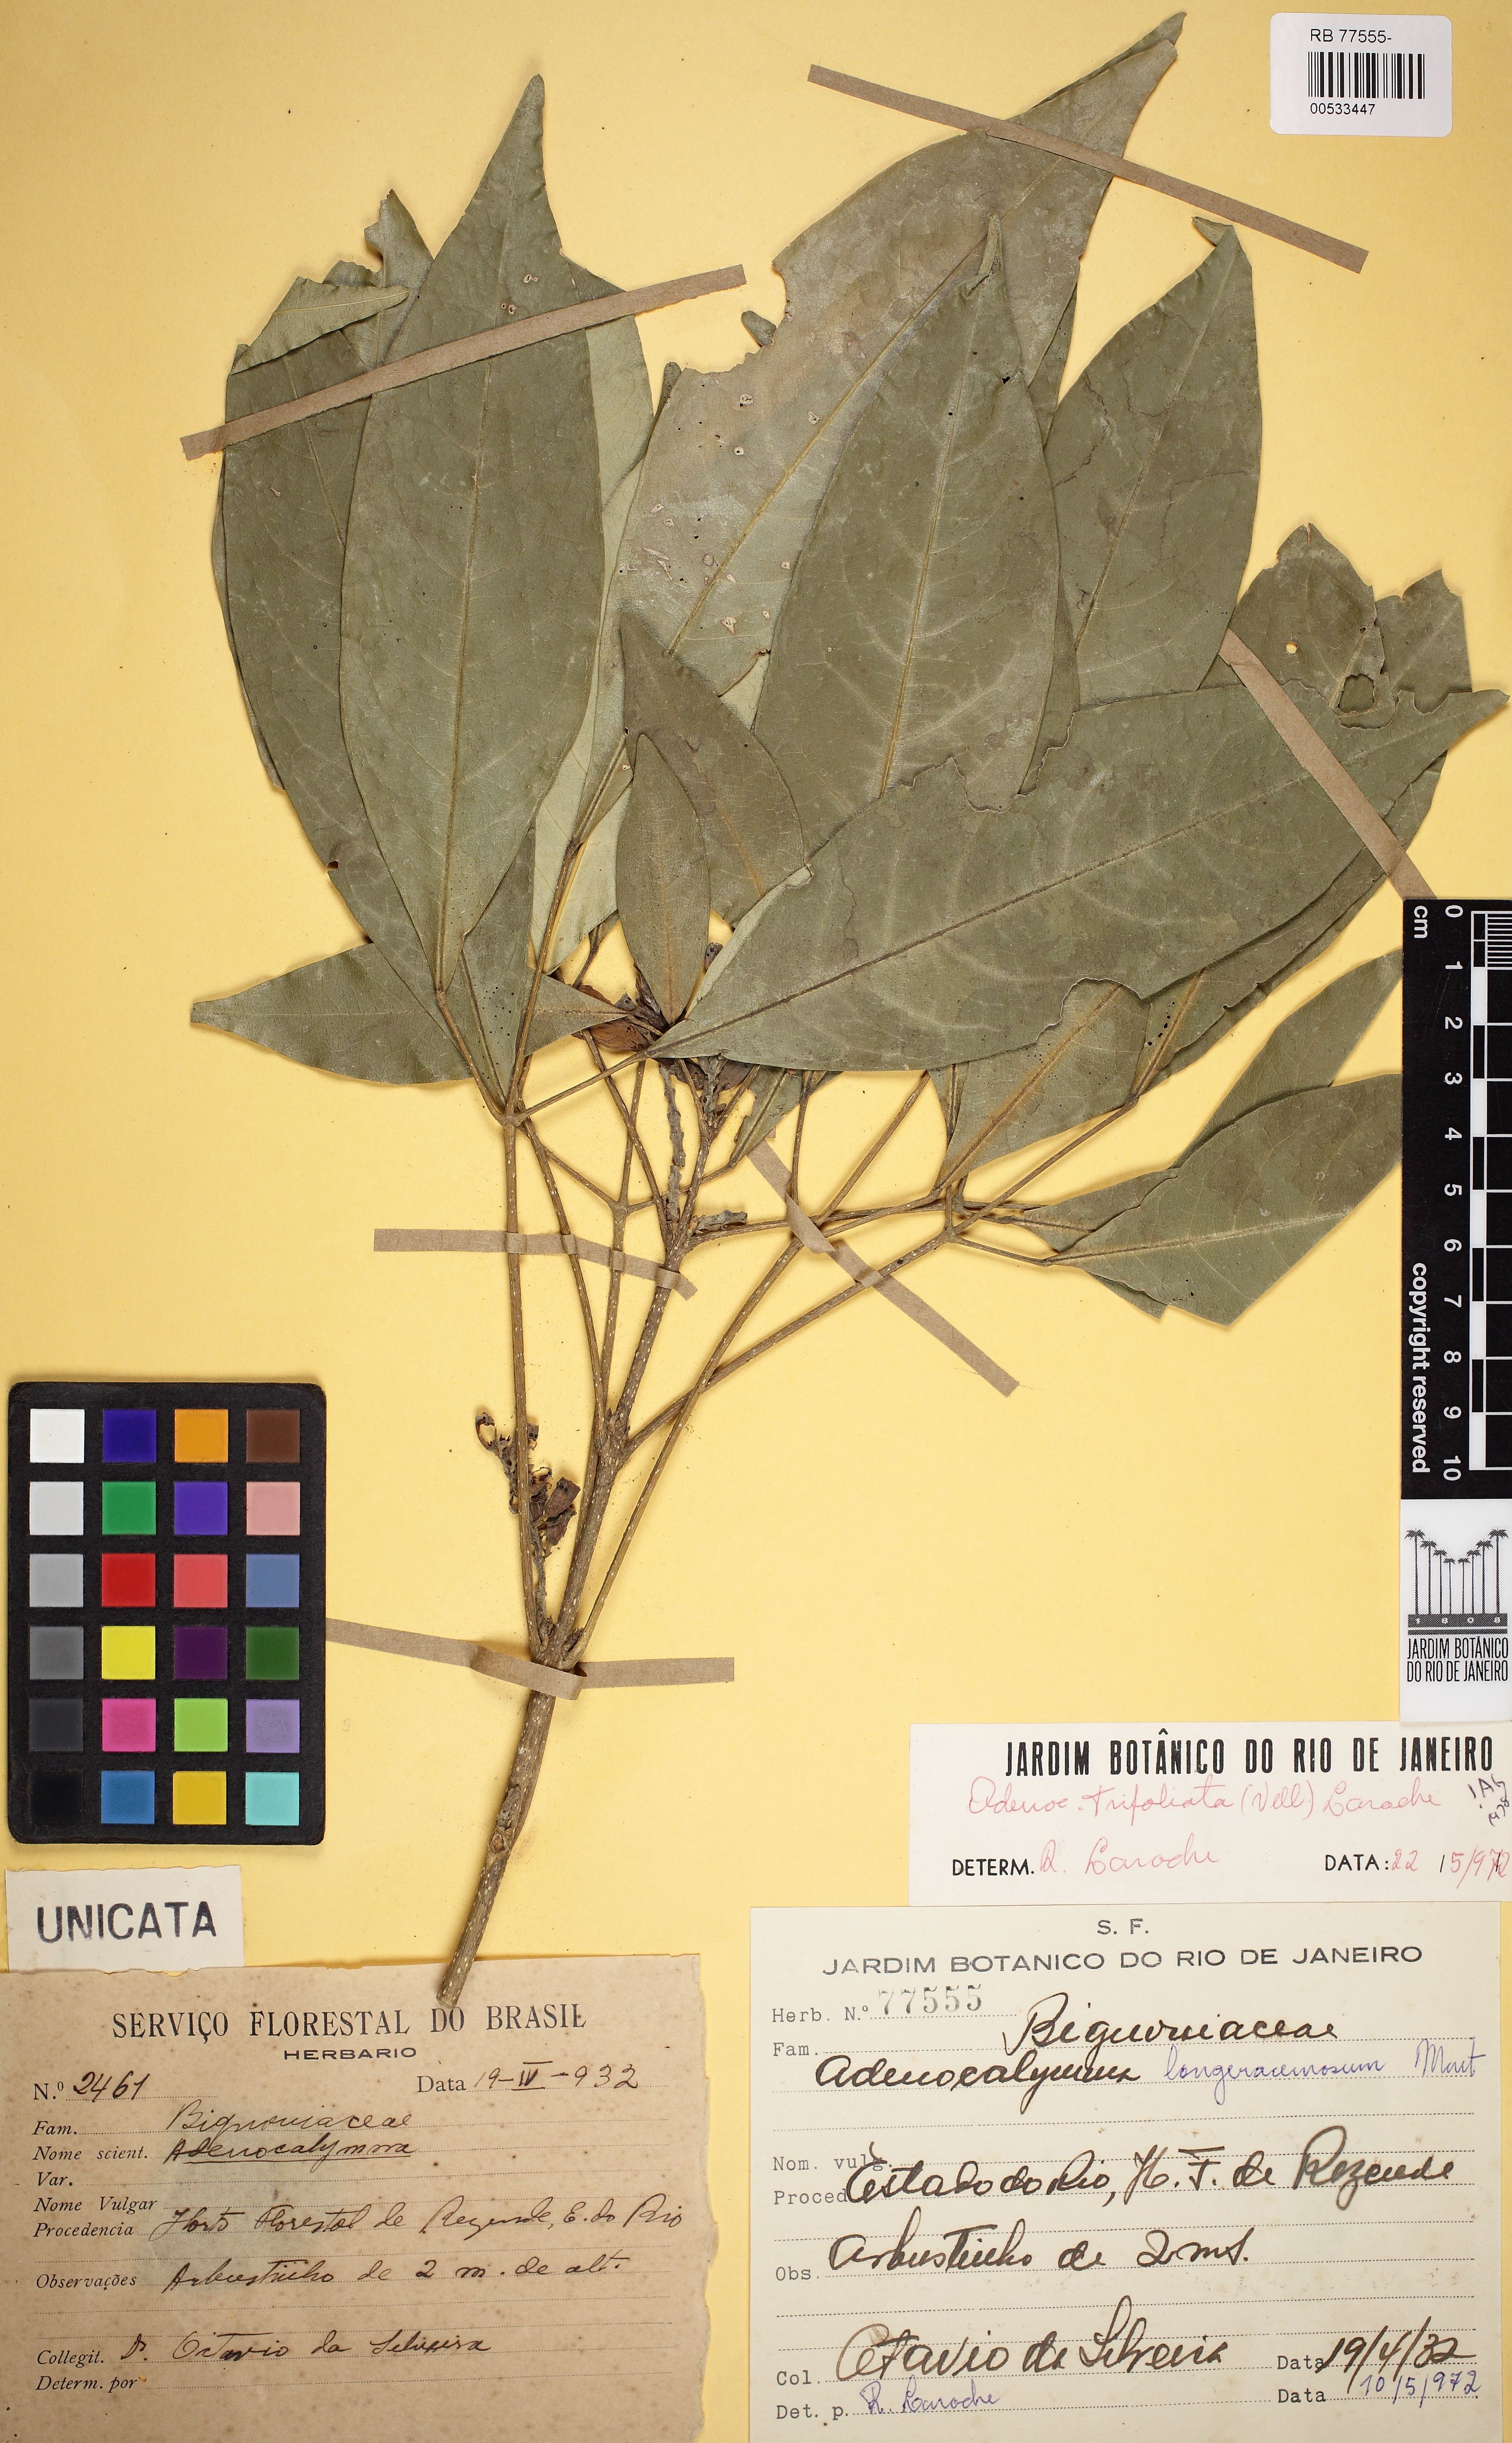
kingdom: Plantae
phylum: Tracheophyta
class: Magnoliopsida
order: Lamiales
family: Bignoniaceae
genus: Adenocalymma
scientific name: Adenocalymma trifoliatum
